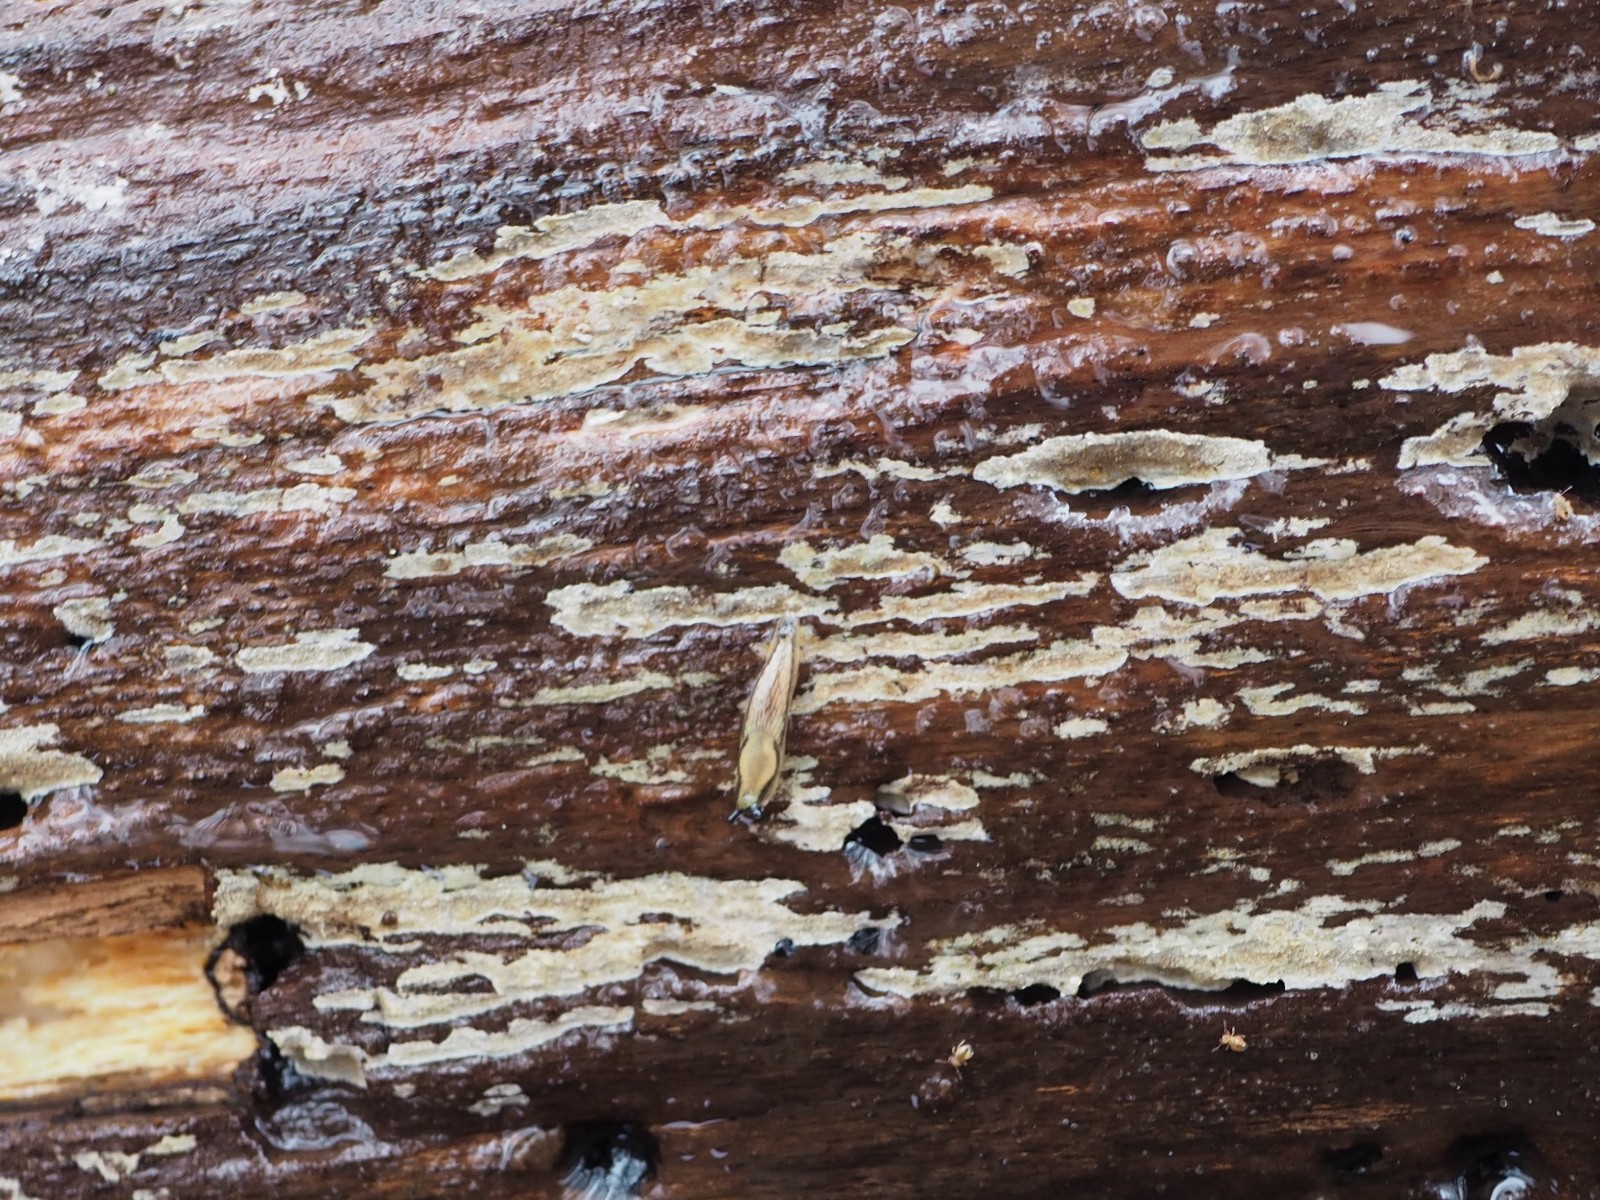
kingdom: Fungi
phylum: Basidiomycota
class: Agaricomycetes
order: Agaricales
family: Stephanosporaceae
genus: Cristinia
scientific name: Cristinia helvetica
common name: glatsporet citrushinde
